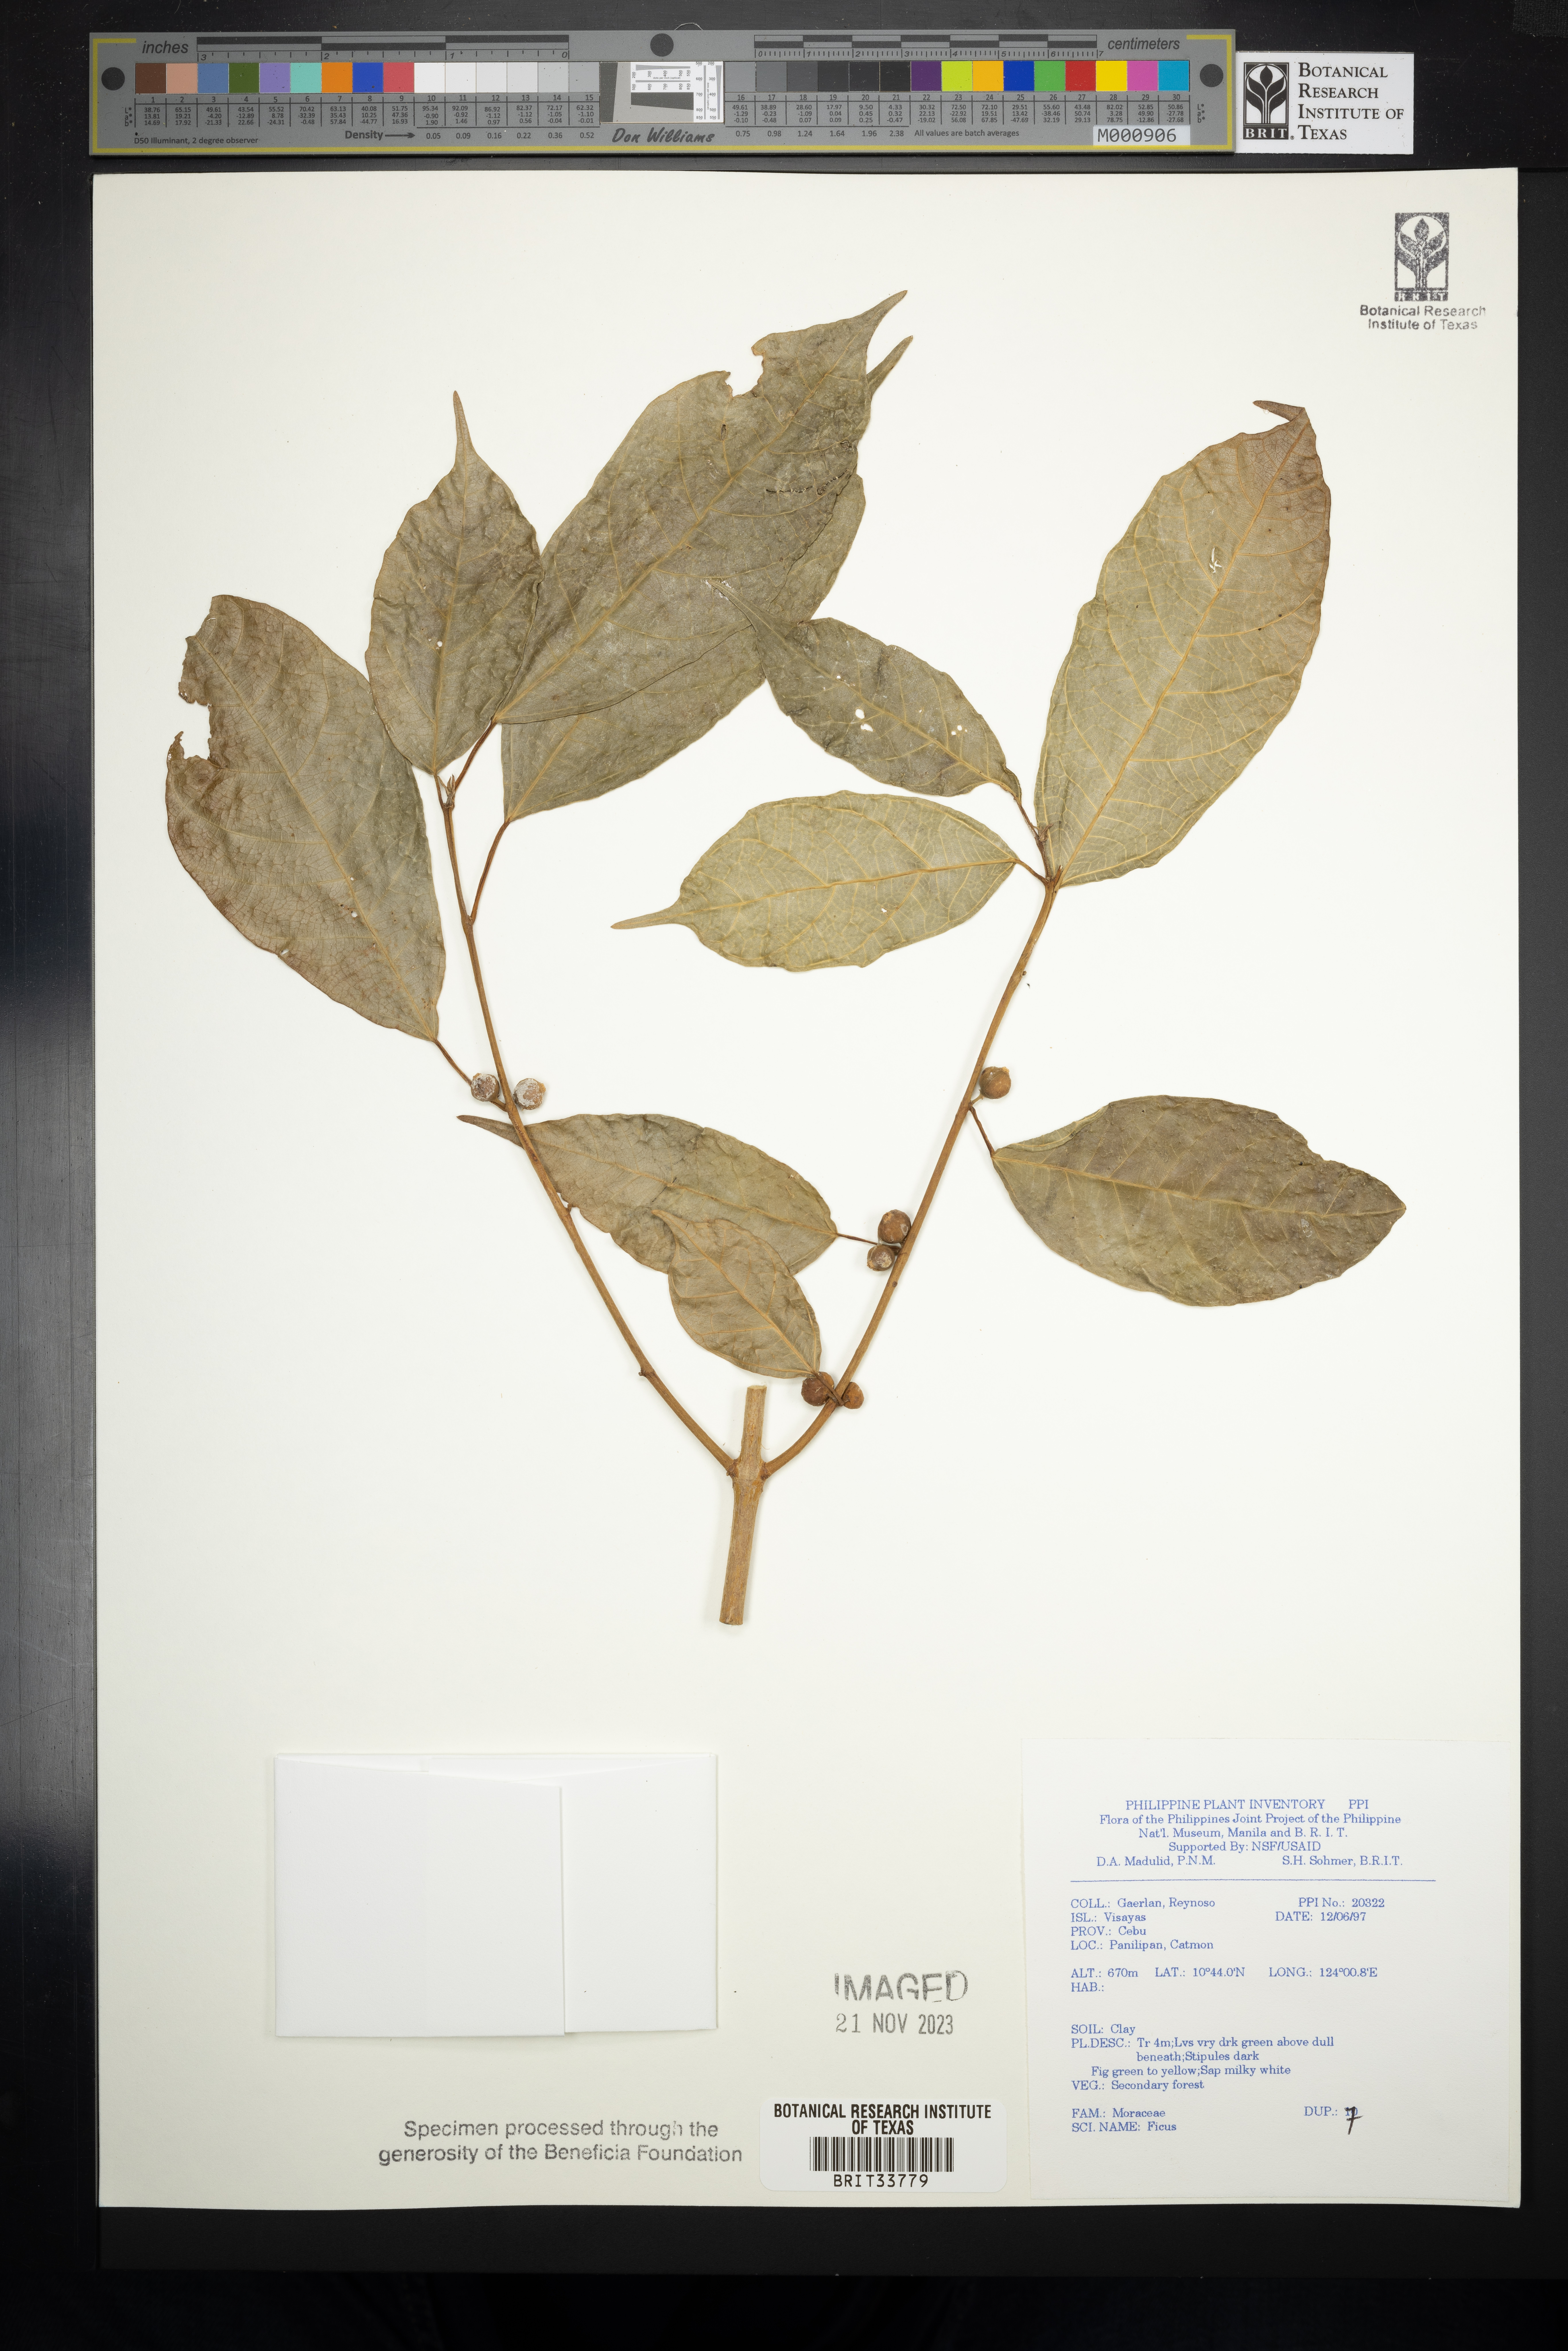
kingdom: Plantae
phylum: Tracheophyta
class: Magnoliopsida
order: Rosales
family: Moraceae
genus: Ficus
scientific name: Ficus
